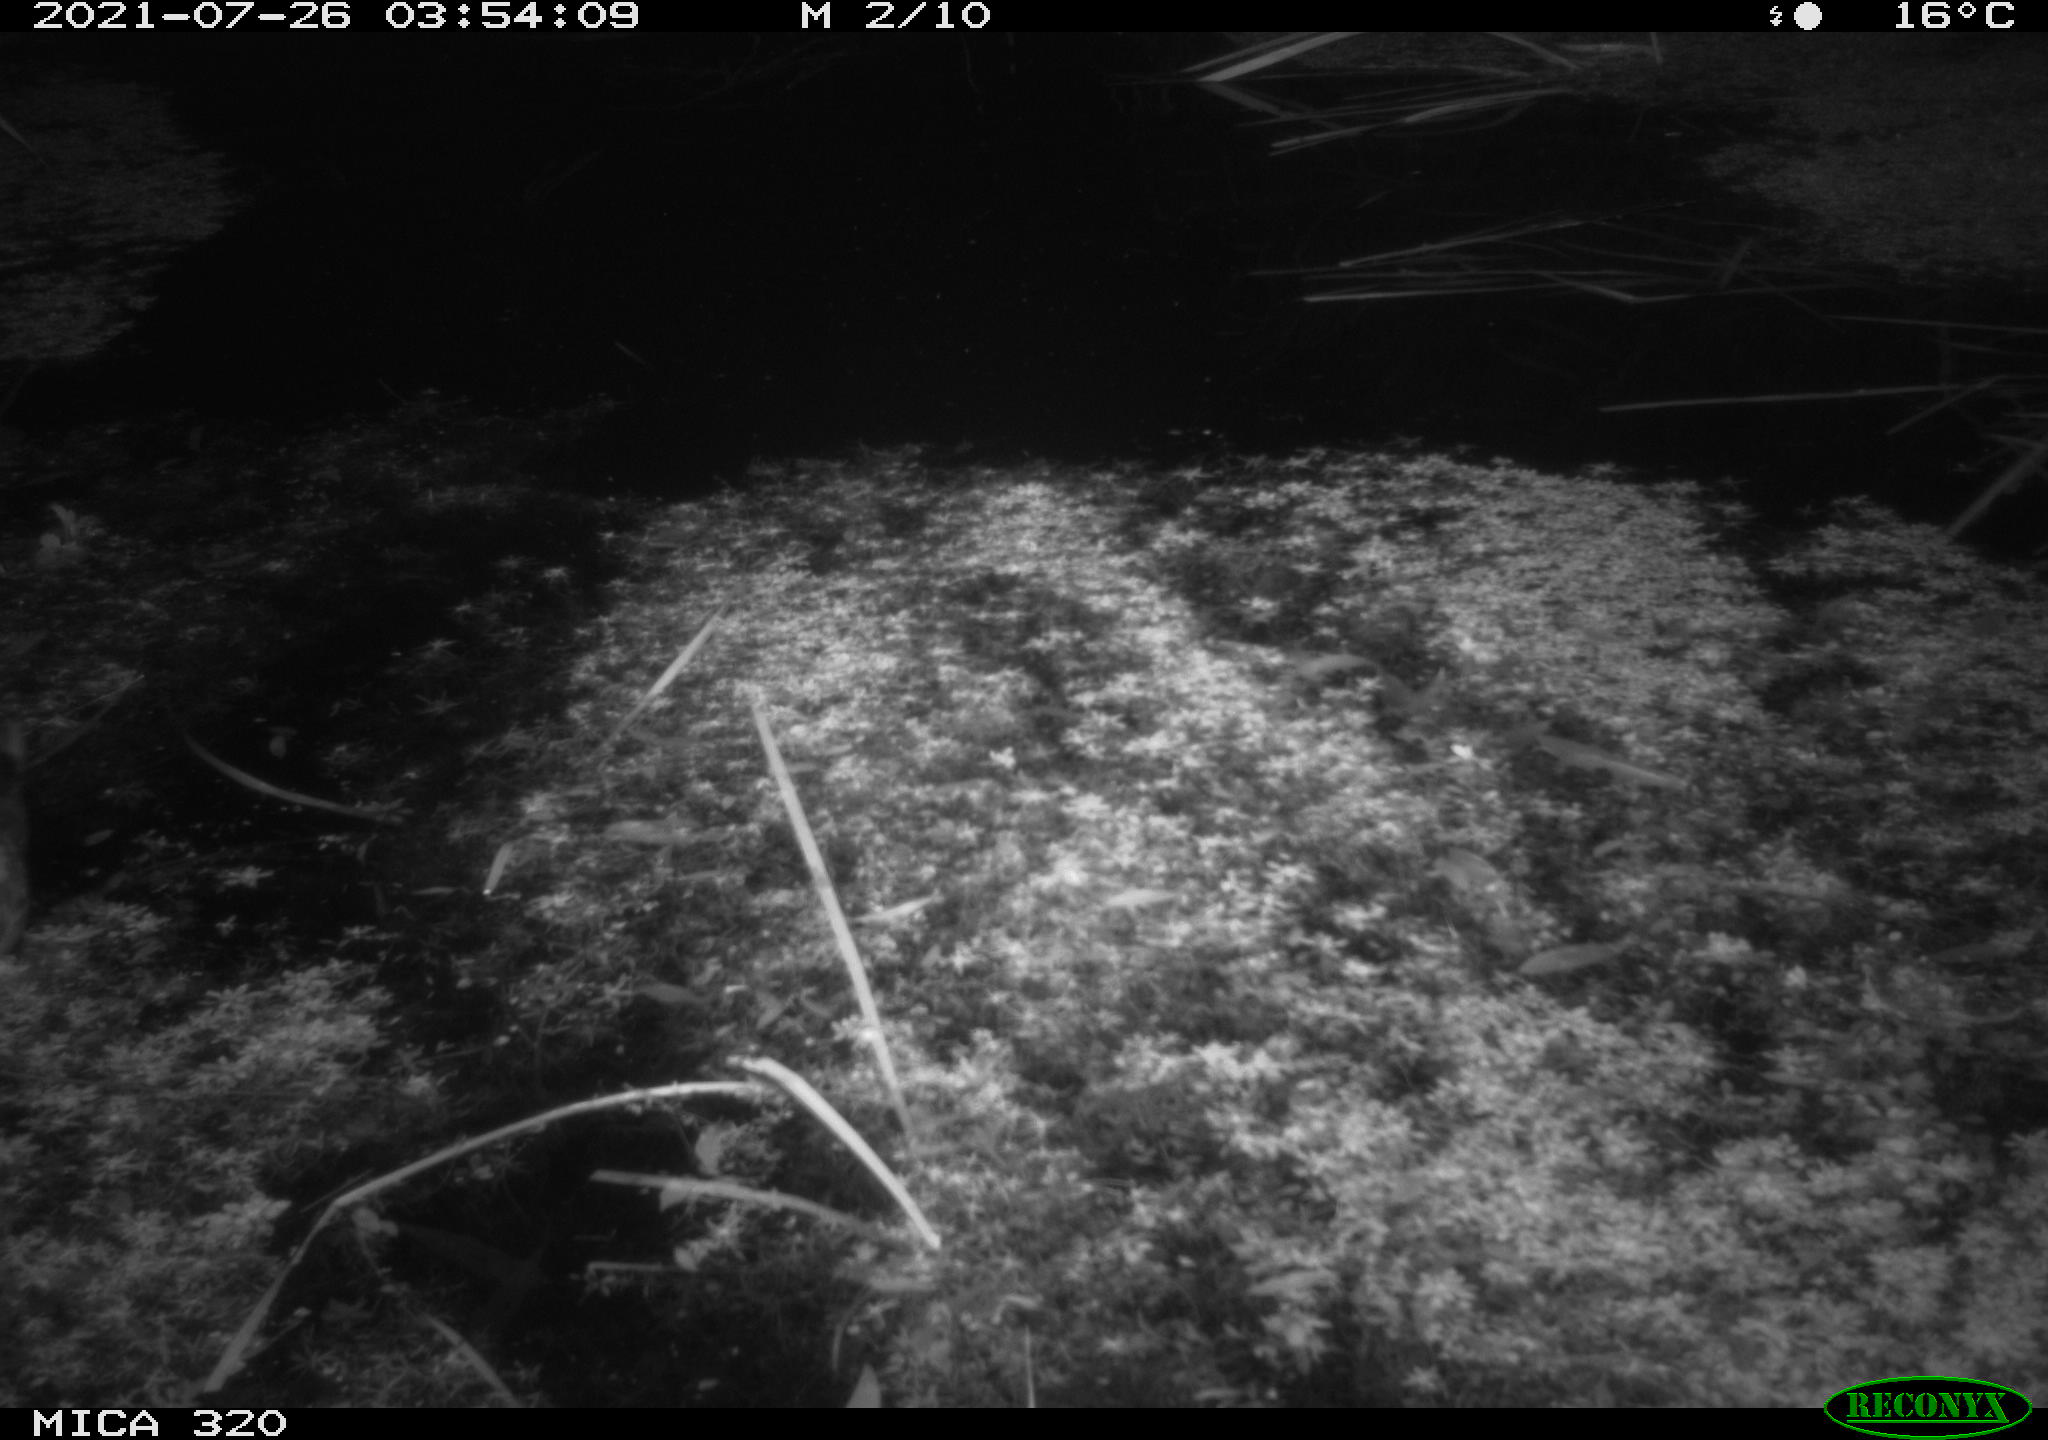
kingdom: Animalia
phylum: Chordata
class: Aves
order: Anseriformes
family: Anatidae
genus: Anas
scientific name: Anas platyrhynchos
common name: Mallard
